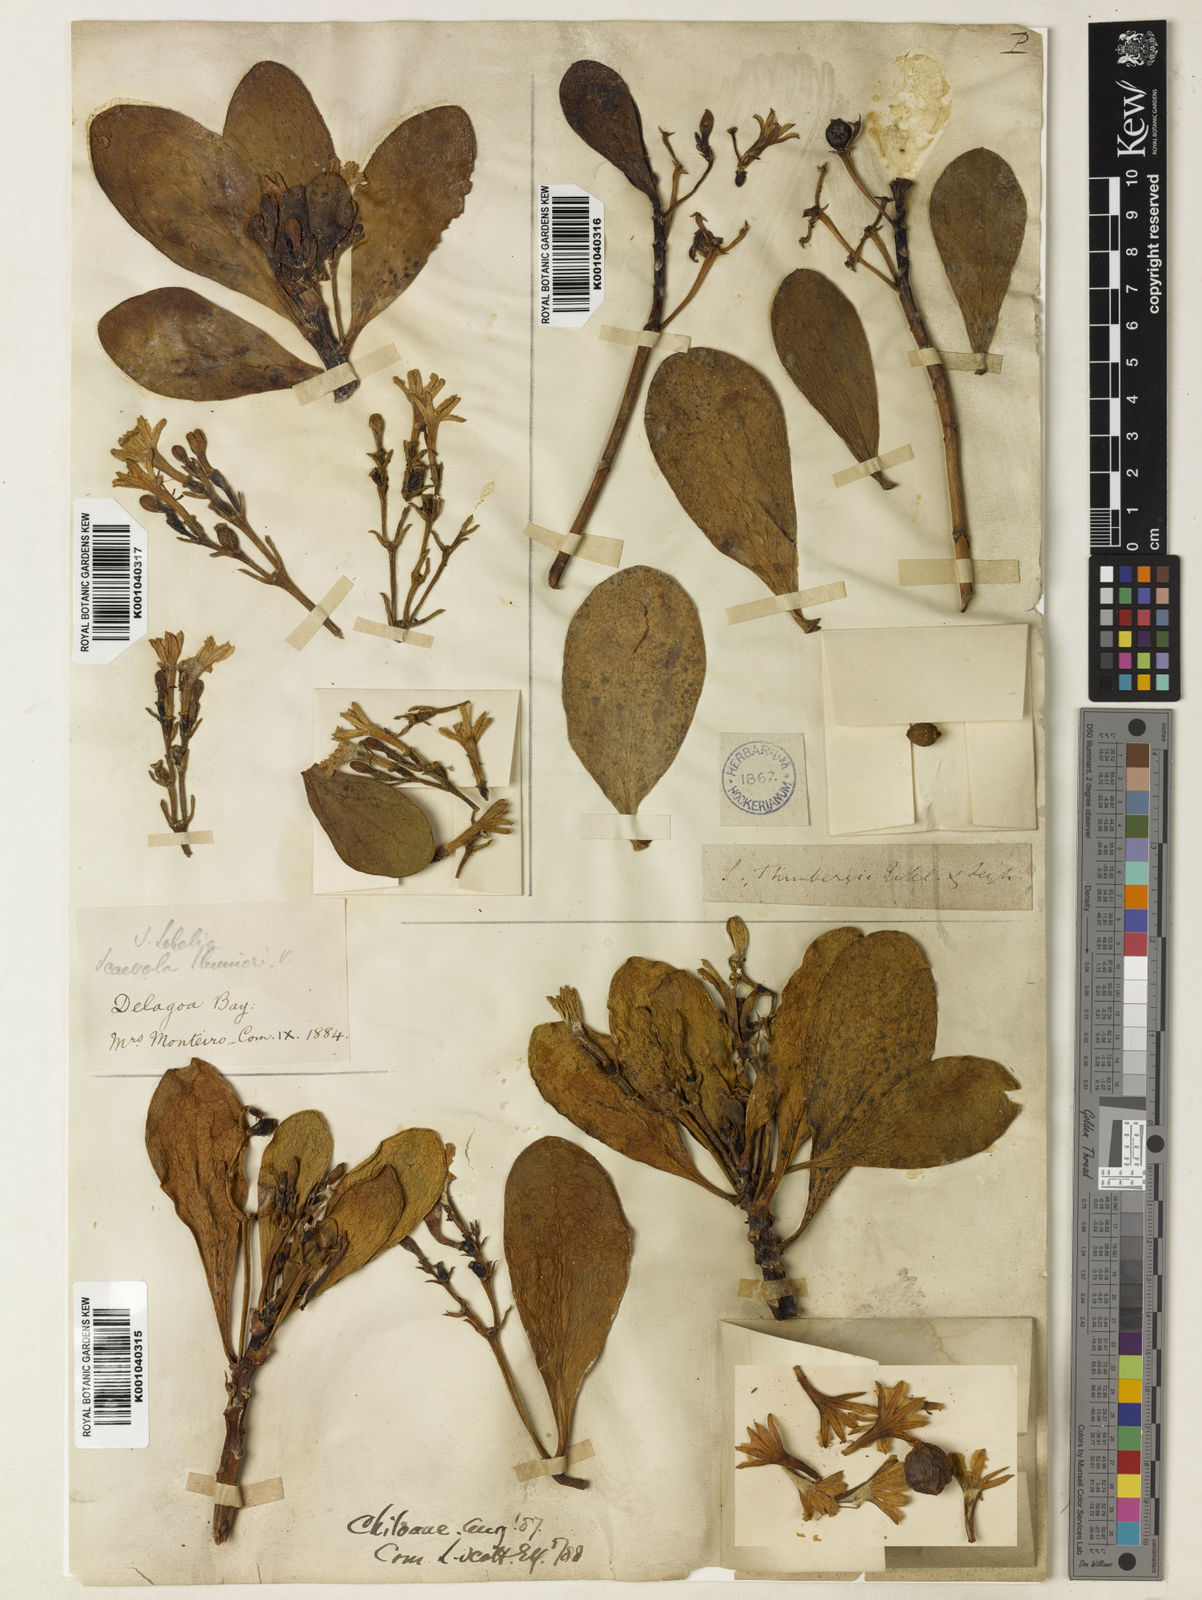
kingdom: Plantae
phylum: Tracheophyta
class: Magnoliopsida
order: Asterales
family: Goodeniaceae
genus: Scaevola
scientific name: Scaevola plumieri
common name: Gull feed
